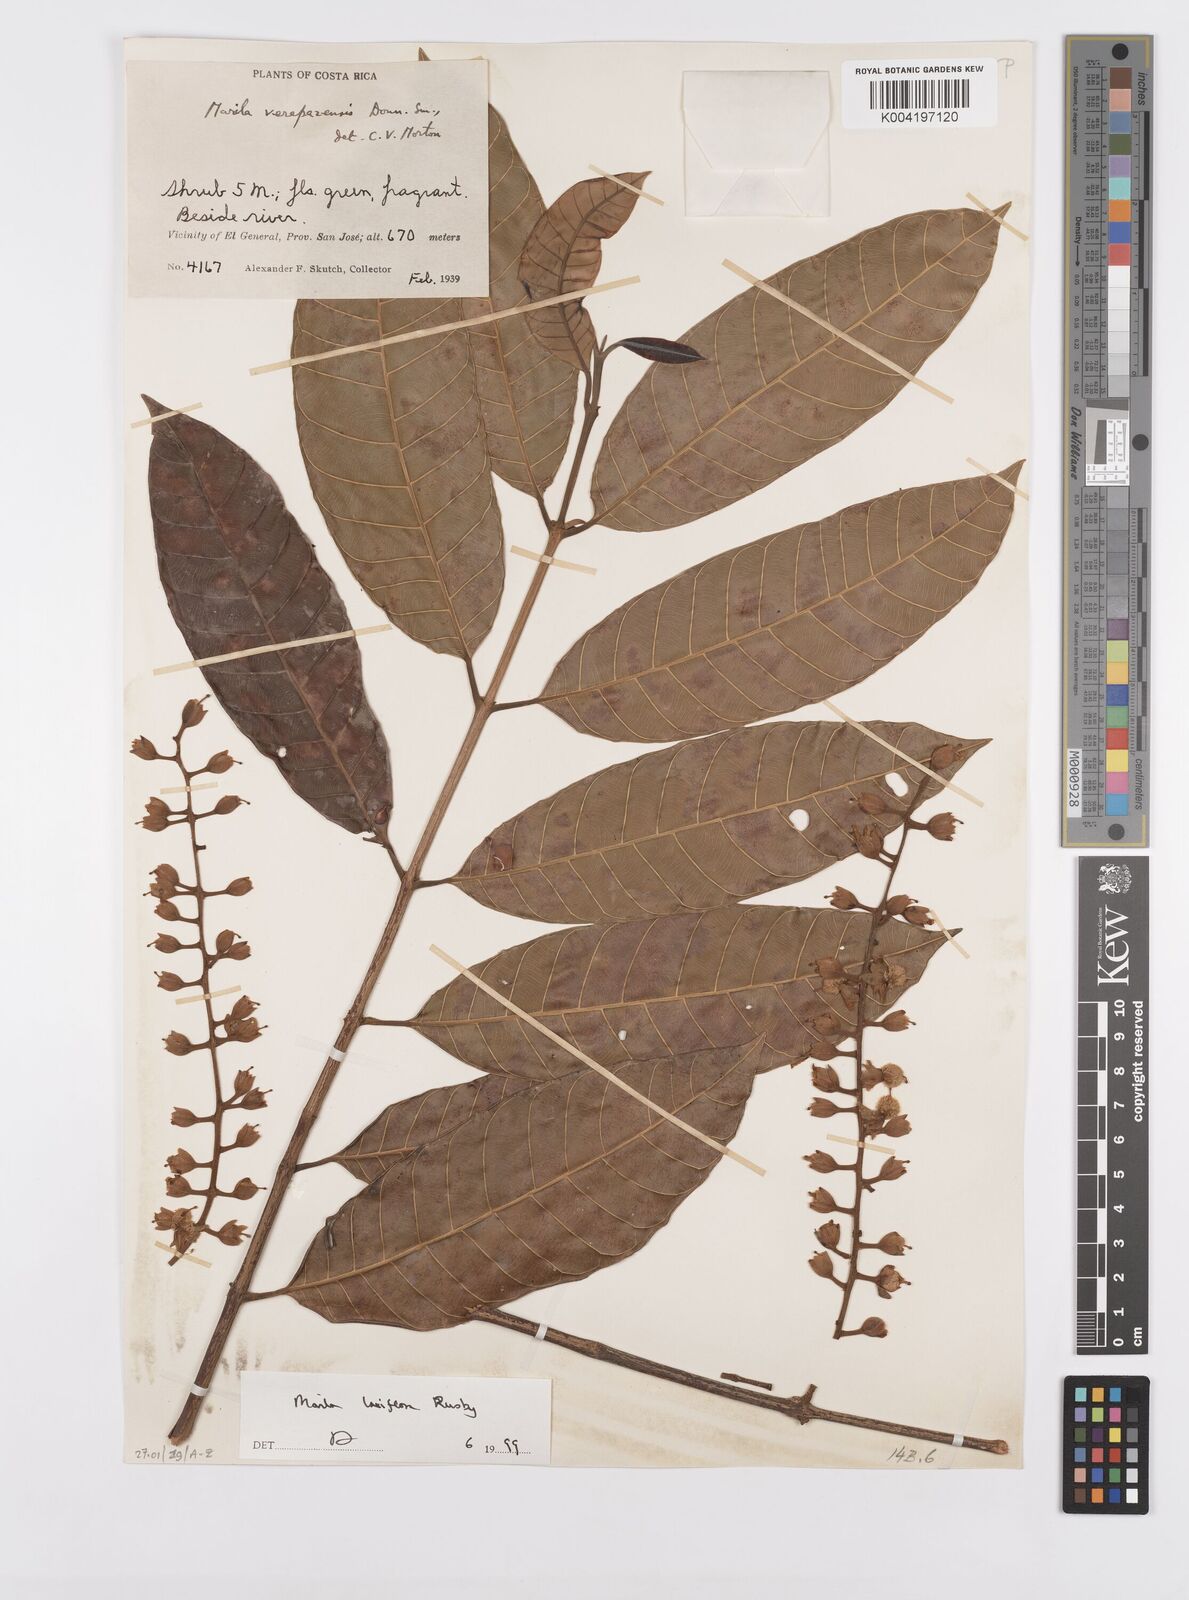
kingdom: Plantae
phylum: Tracheophyta
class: Magnoliopsida
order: Malpighiales
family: Calophyllaceae
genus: Marila
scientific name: Marila laxiflora
